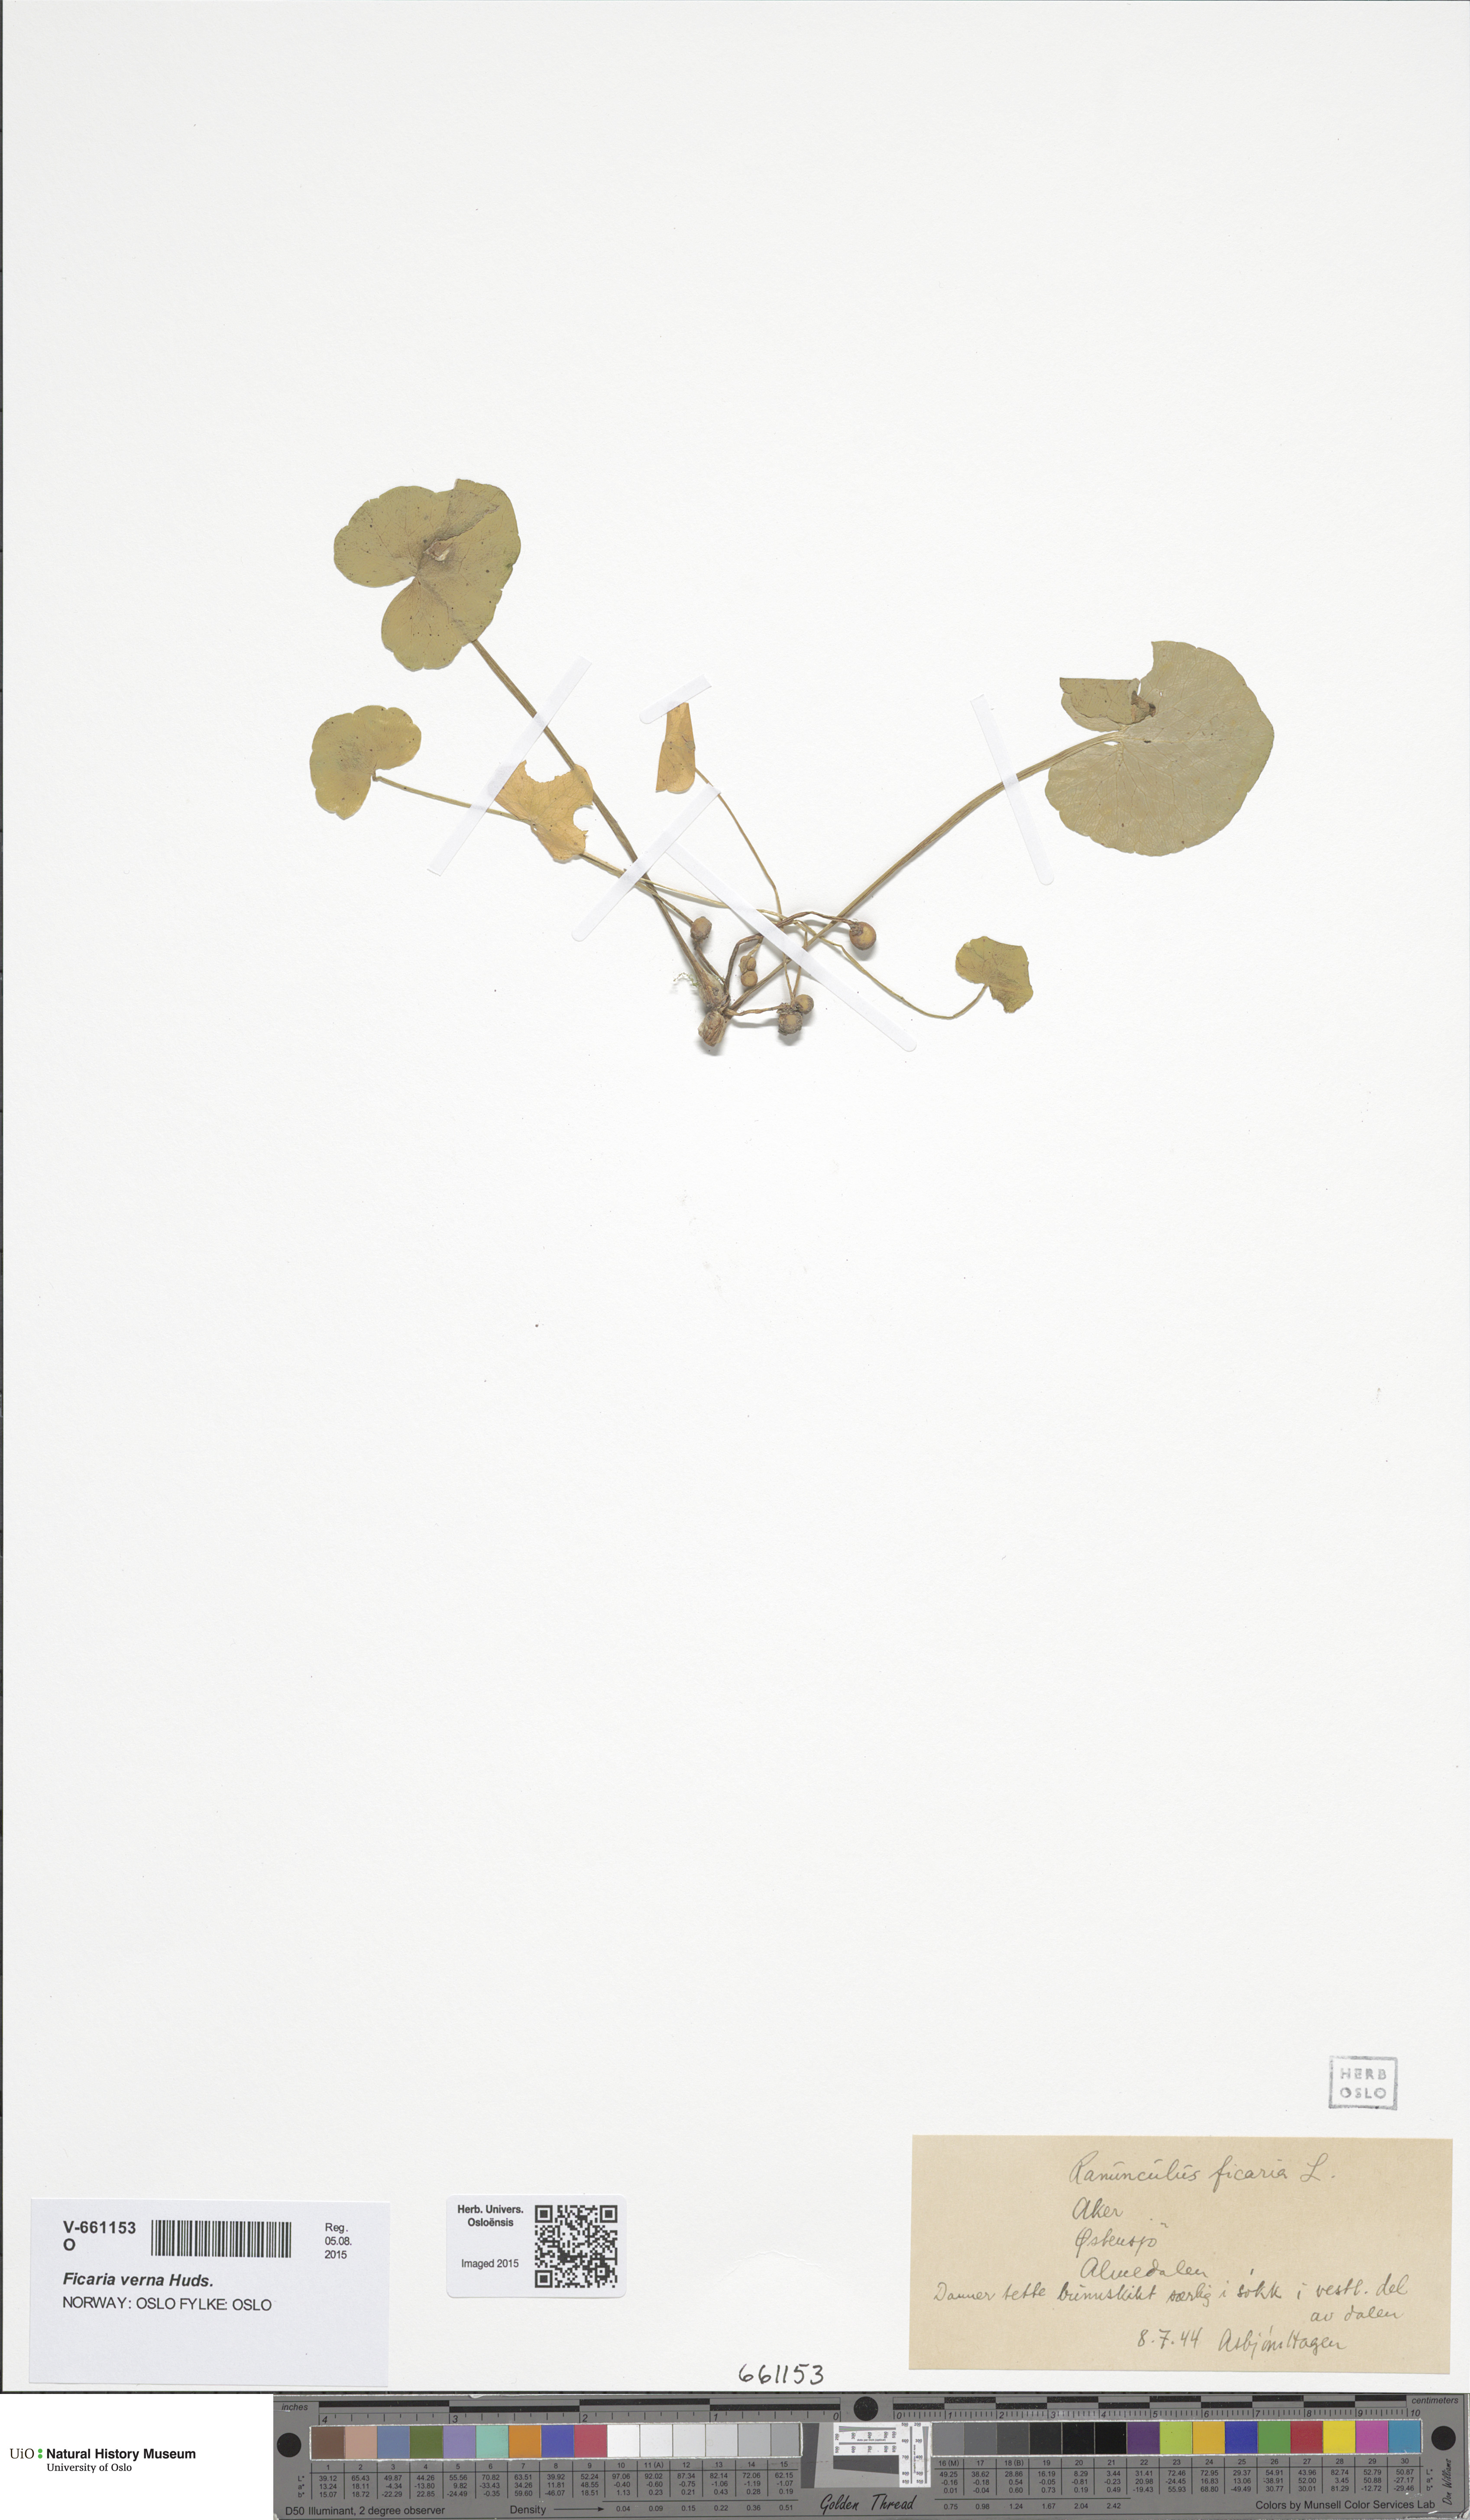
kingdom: Plantae
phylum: Tracheophyta
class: Magnoliopsida
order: Ranunculales
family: Ranunculaceae
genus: Ficaria
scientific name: Ficaria verna
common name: Lesser celandine
